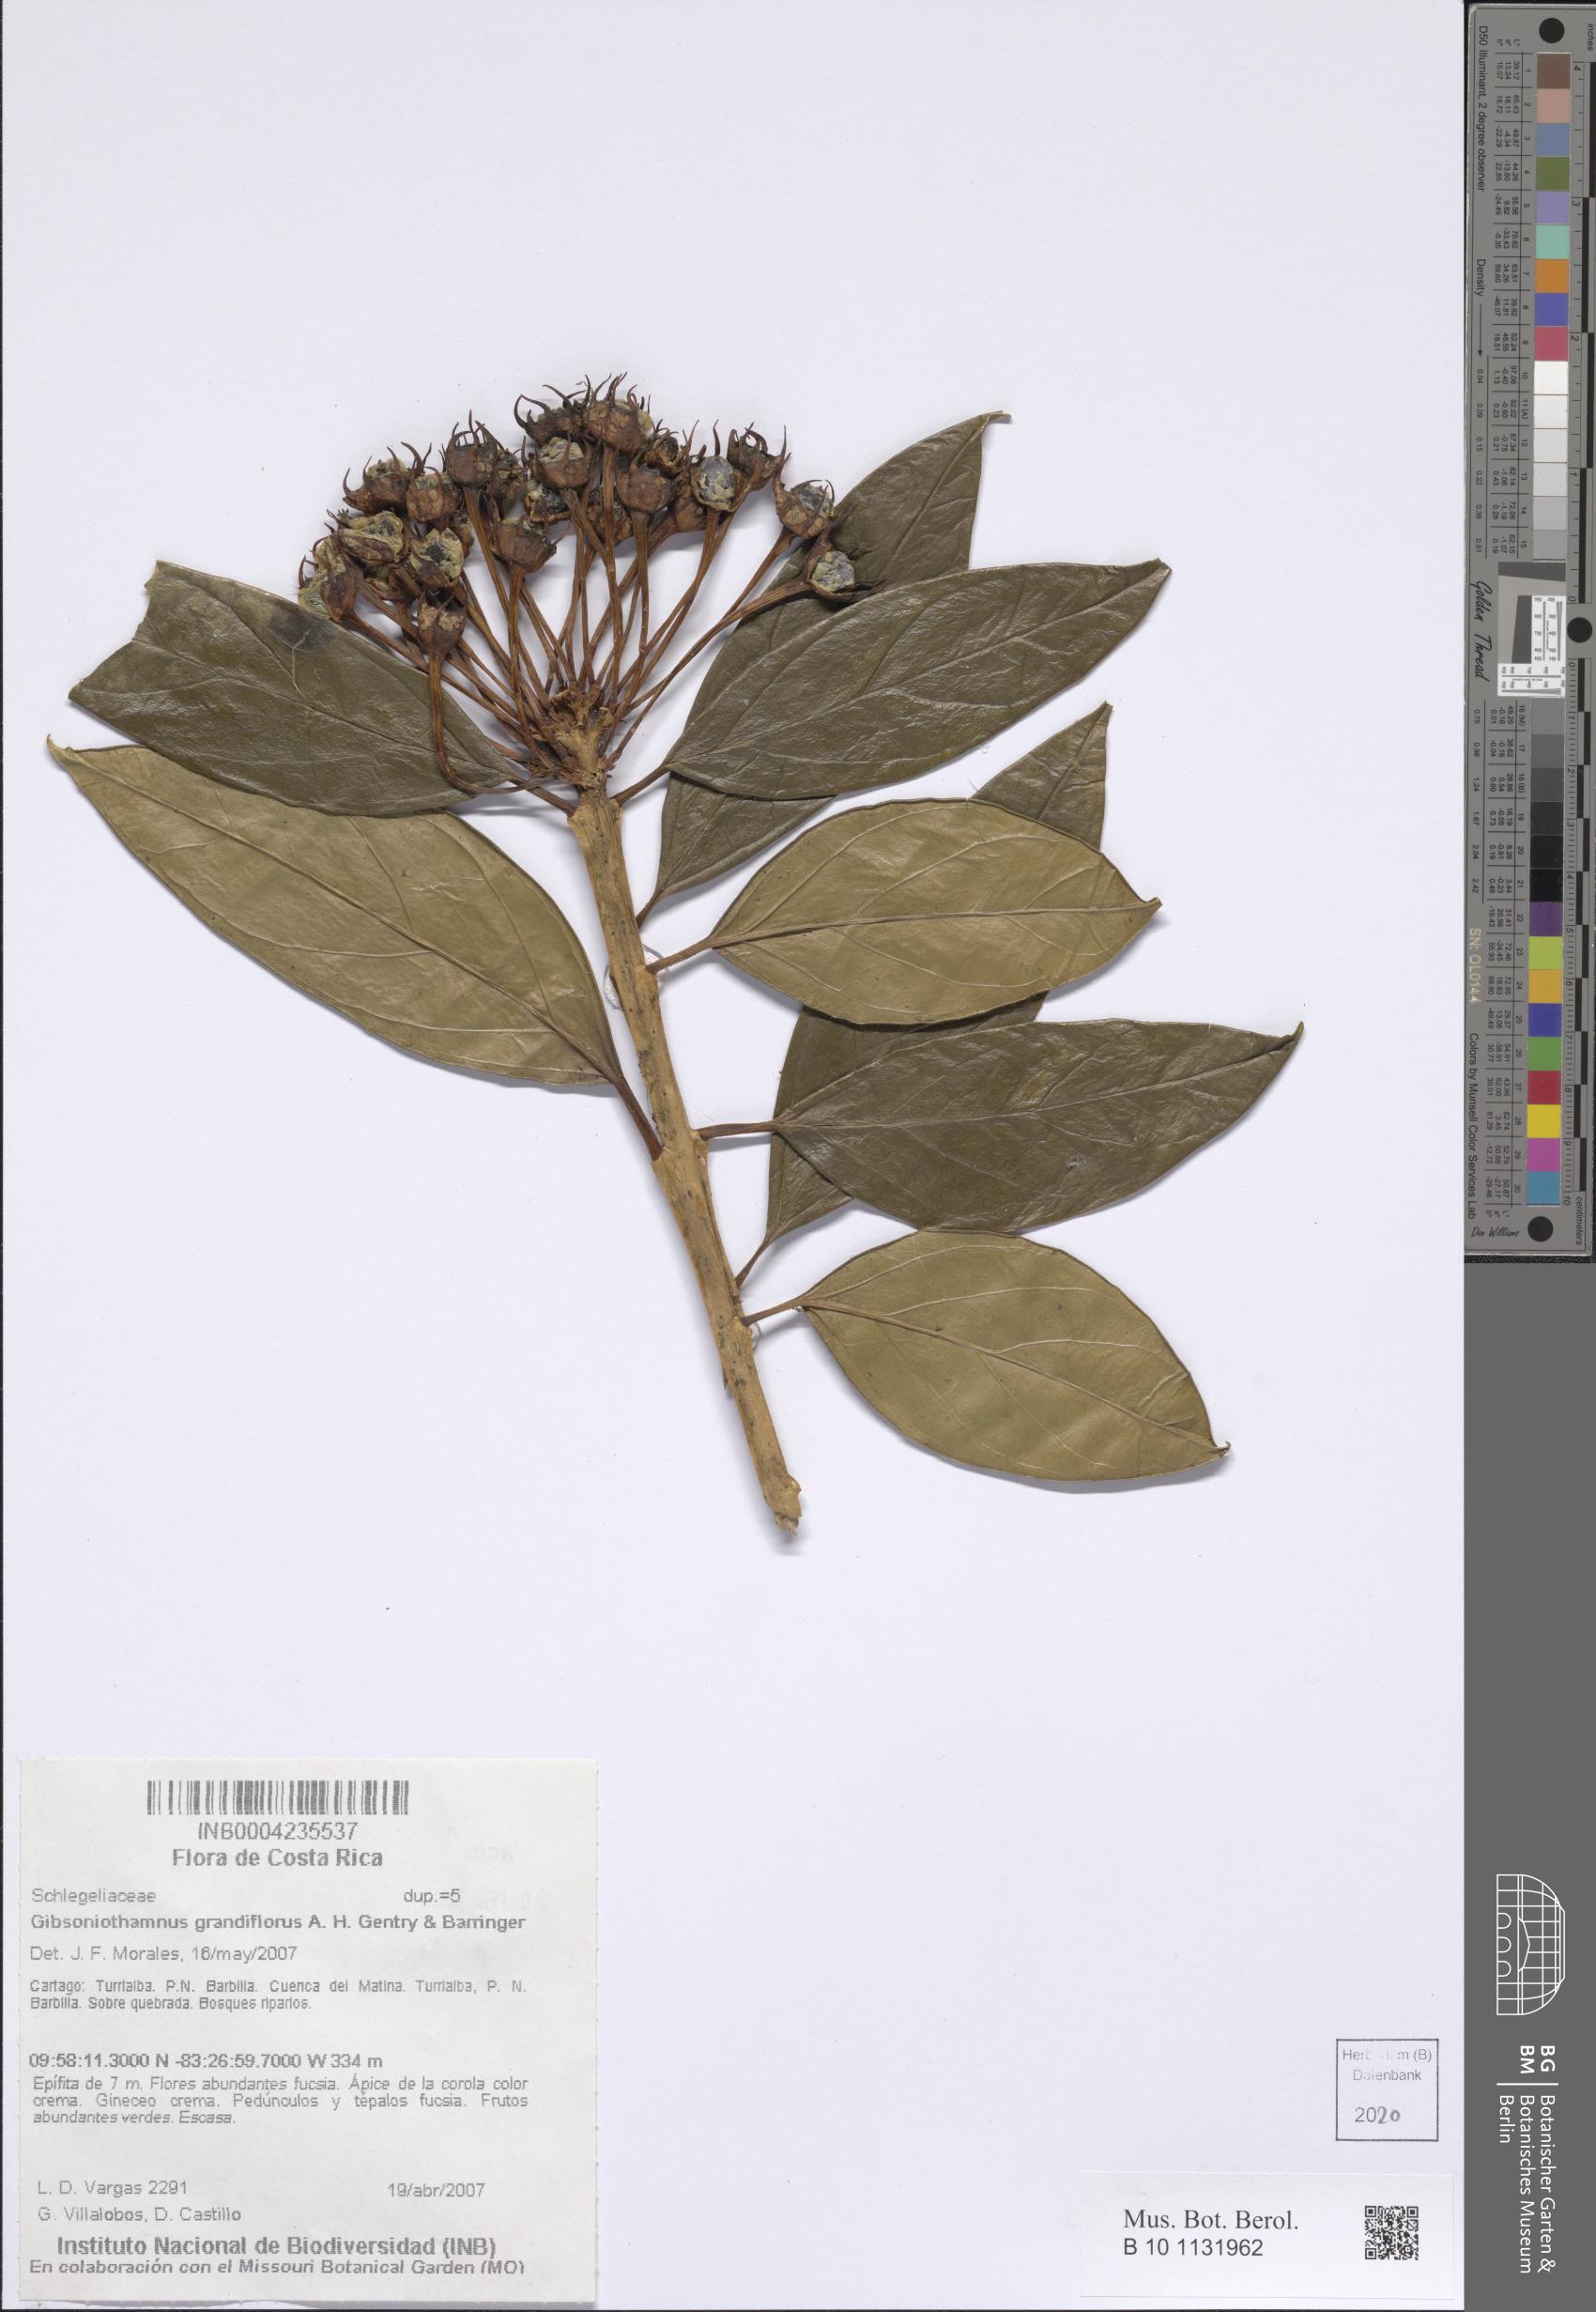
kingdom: Plantae
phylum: Tracheophyta
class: Magnoliopsida
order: Lamiales
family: Schlegeliaceae
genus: Gibsoniothamnus
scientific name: Gibsoniothamnus grandiflorus
